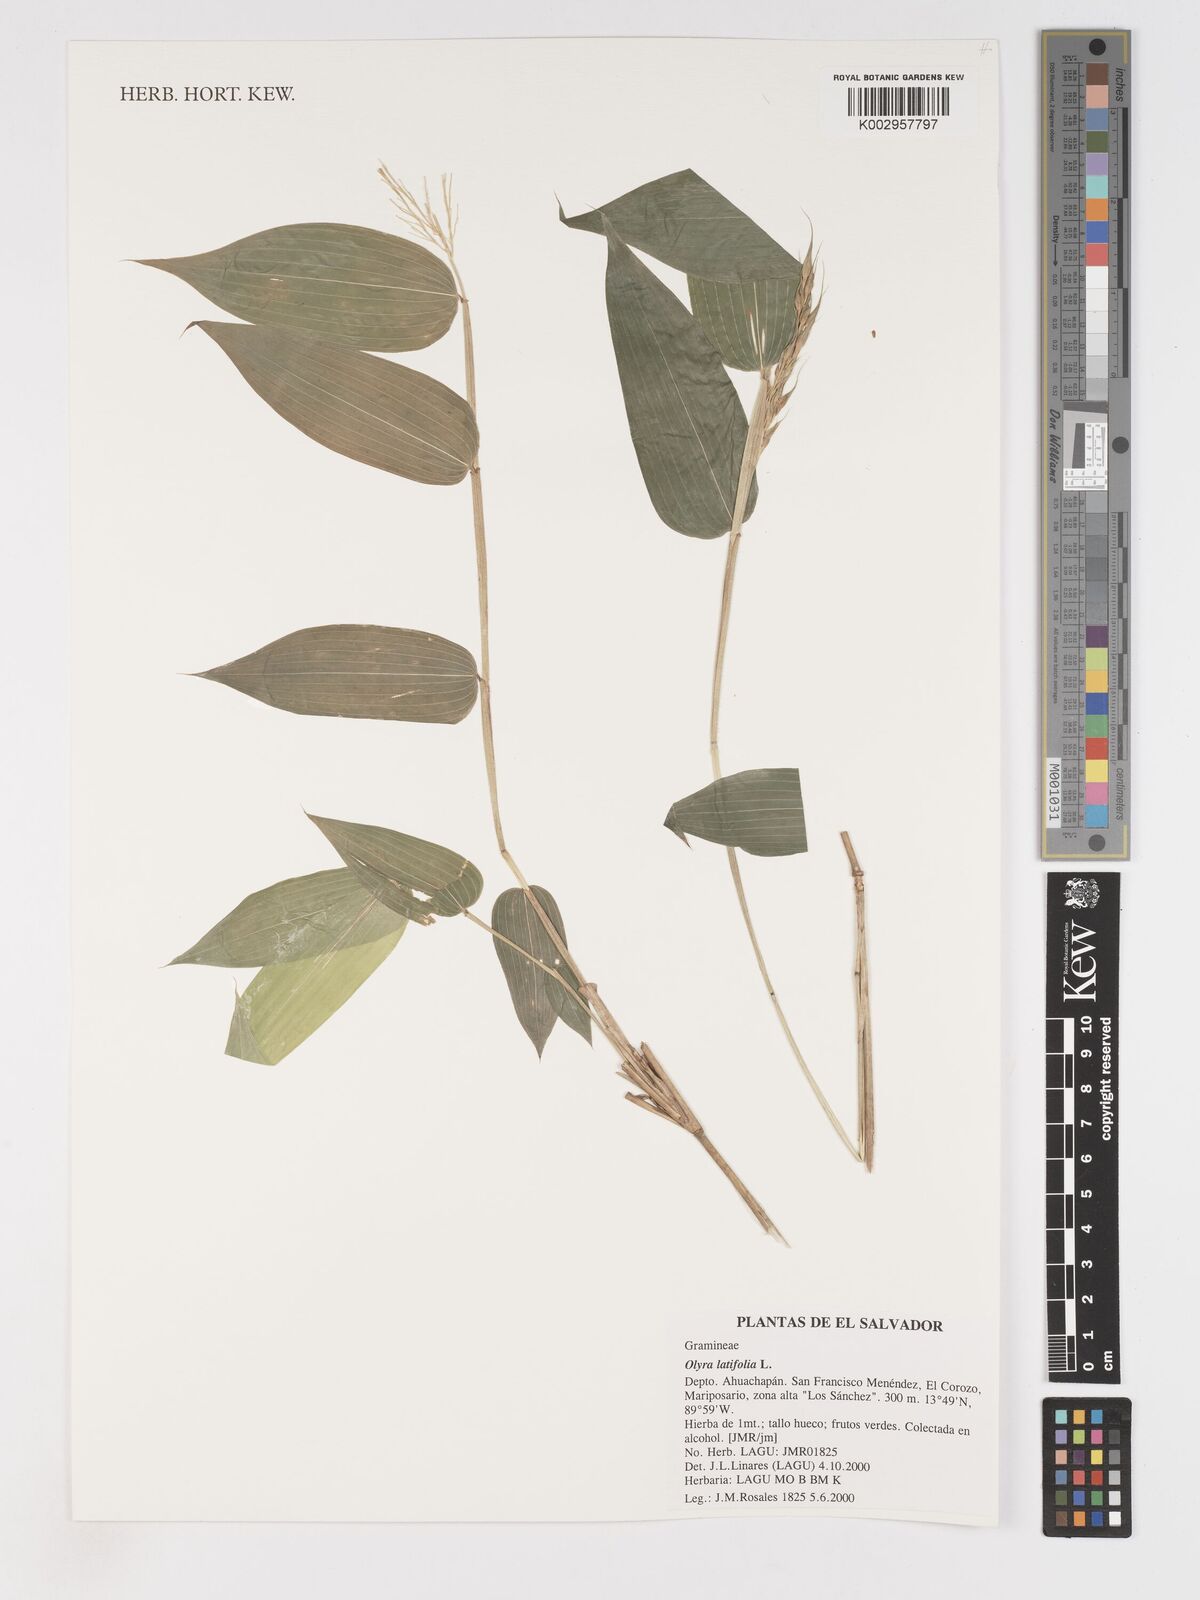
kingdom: Plantae
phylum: Tracheophyta
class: Liliopsida
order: Poales
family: Poaceae
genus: Olyra
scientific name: Olyra latifolia
